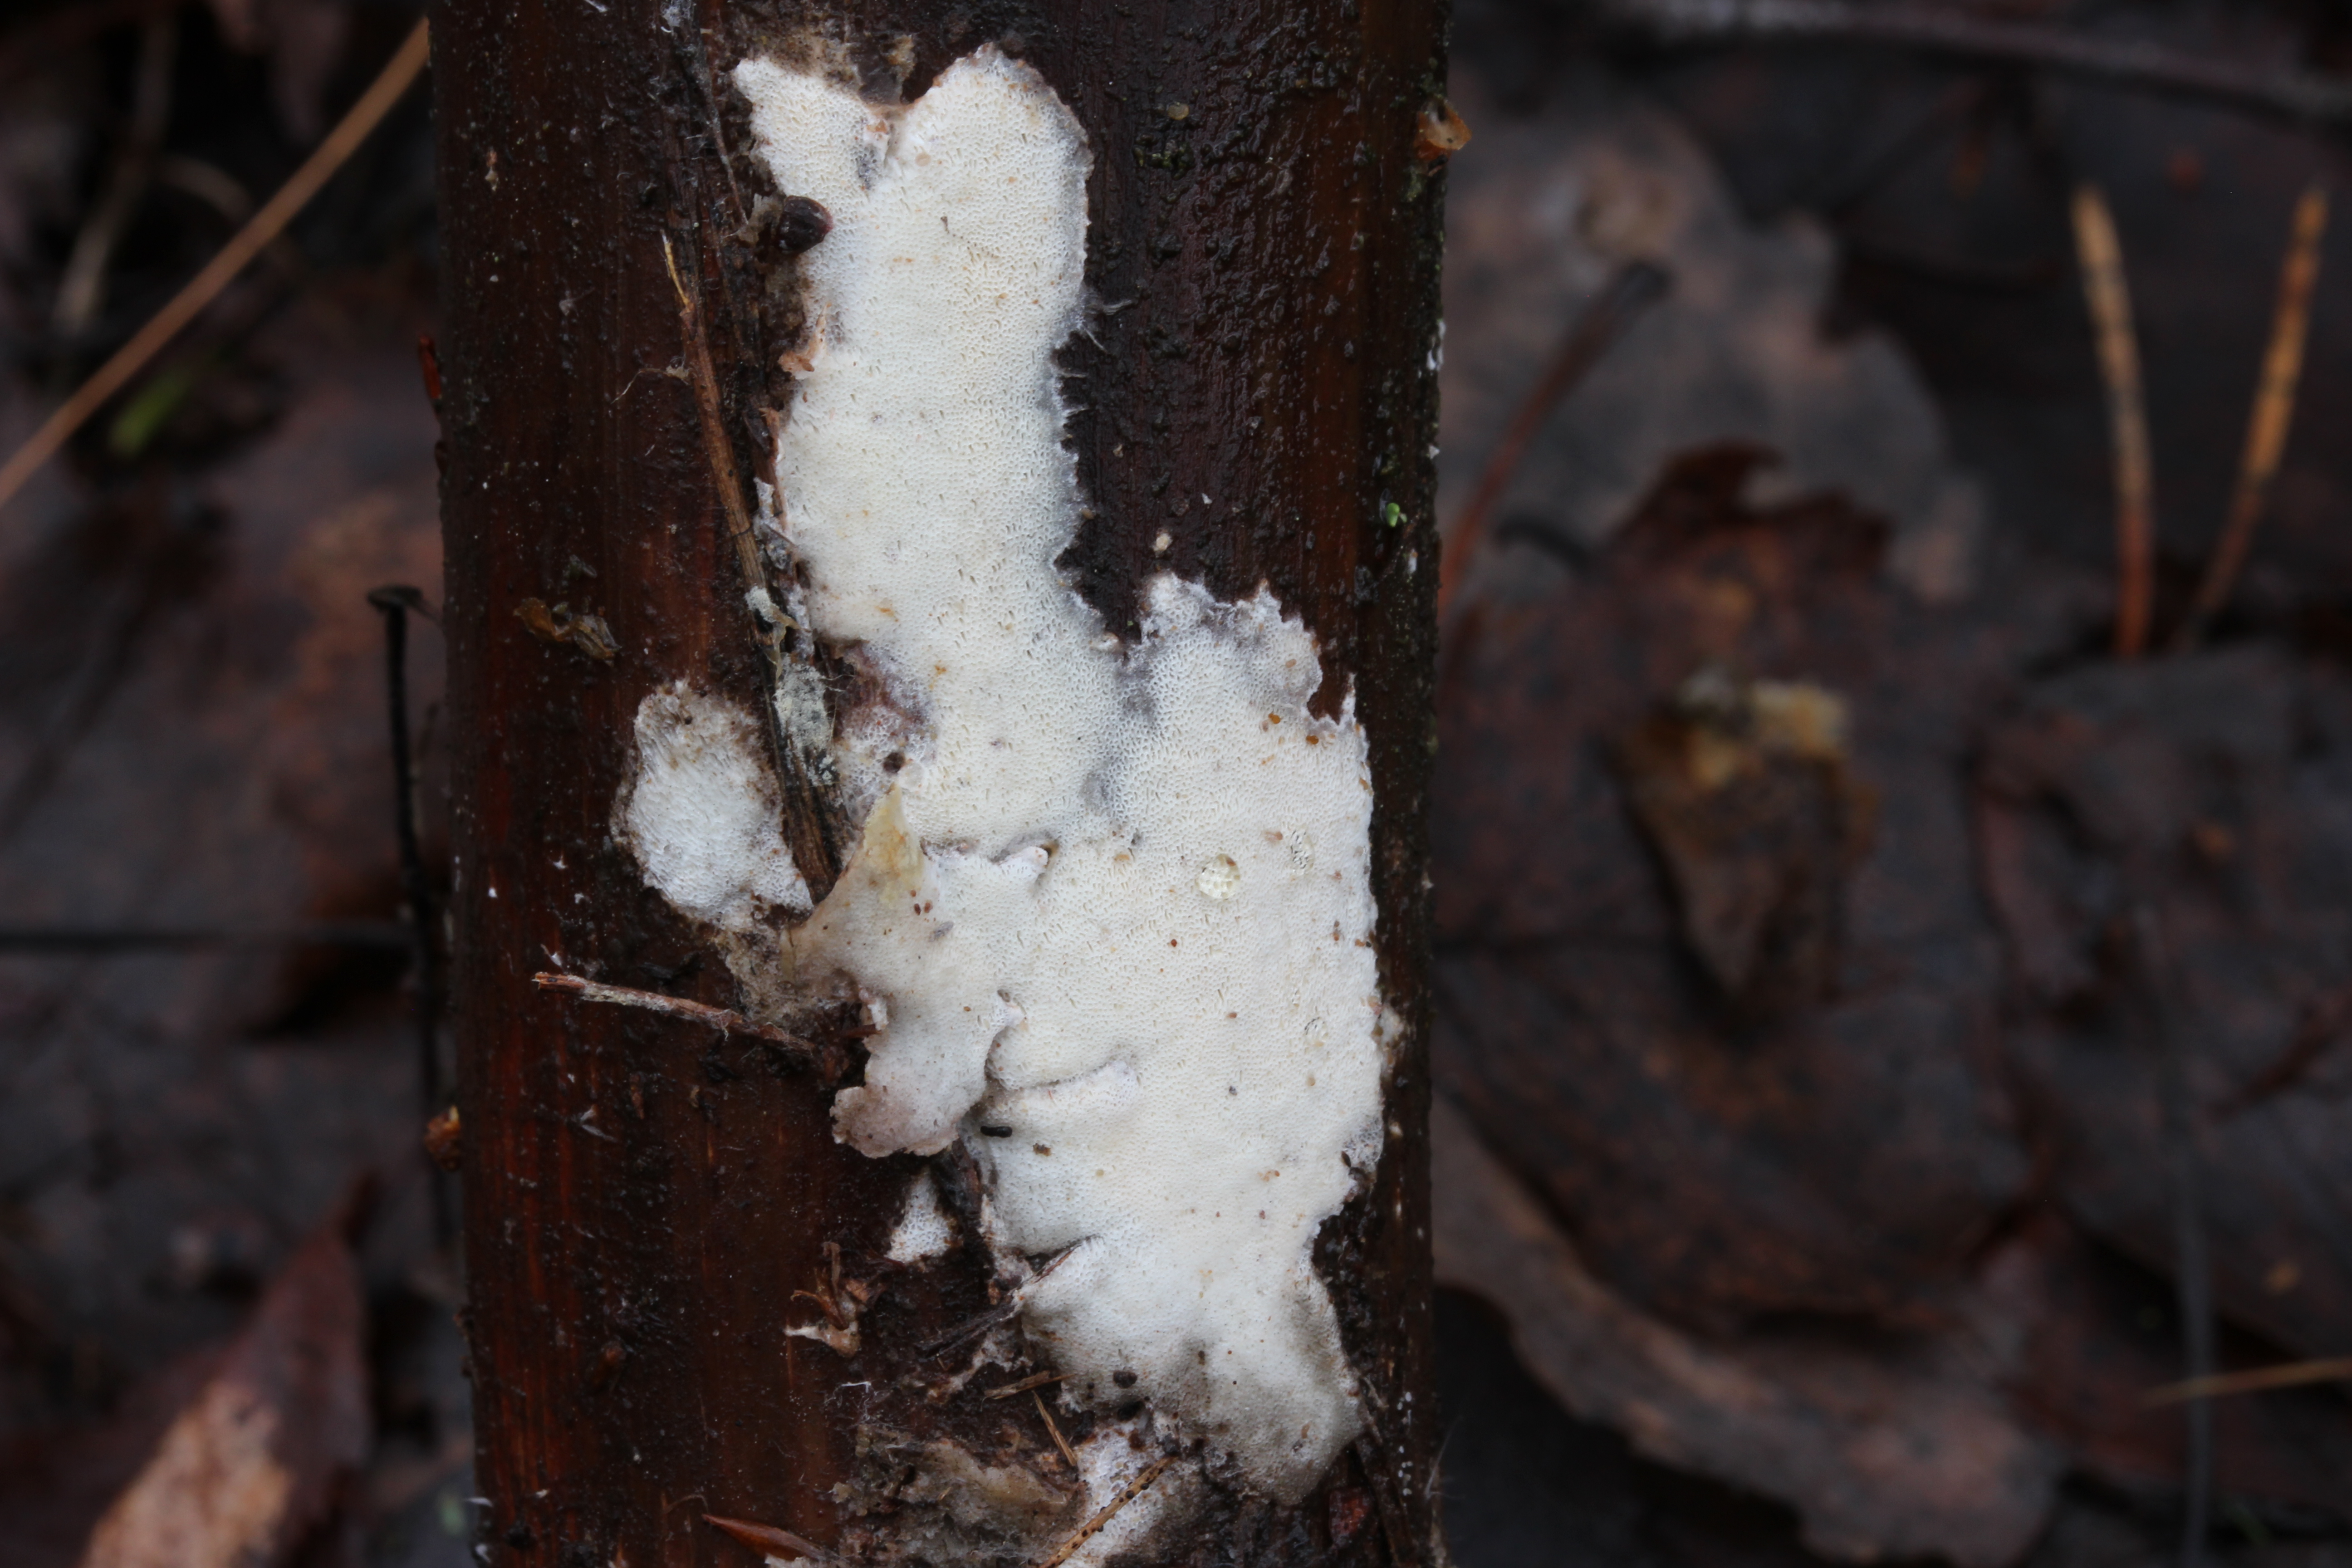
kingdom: Fungi
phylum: Basidiomycota
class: Agaricomycetes
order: Polyporales
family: Dacryobolaceae
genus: Postia
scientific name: Postia sericeomollis
